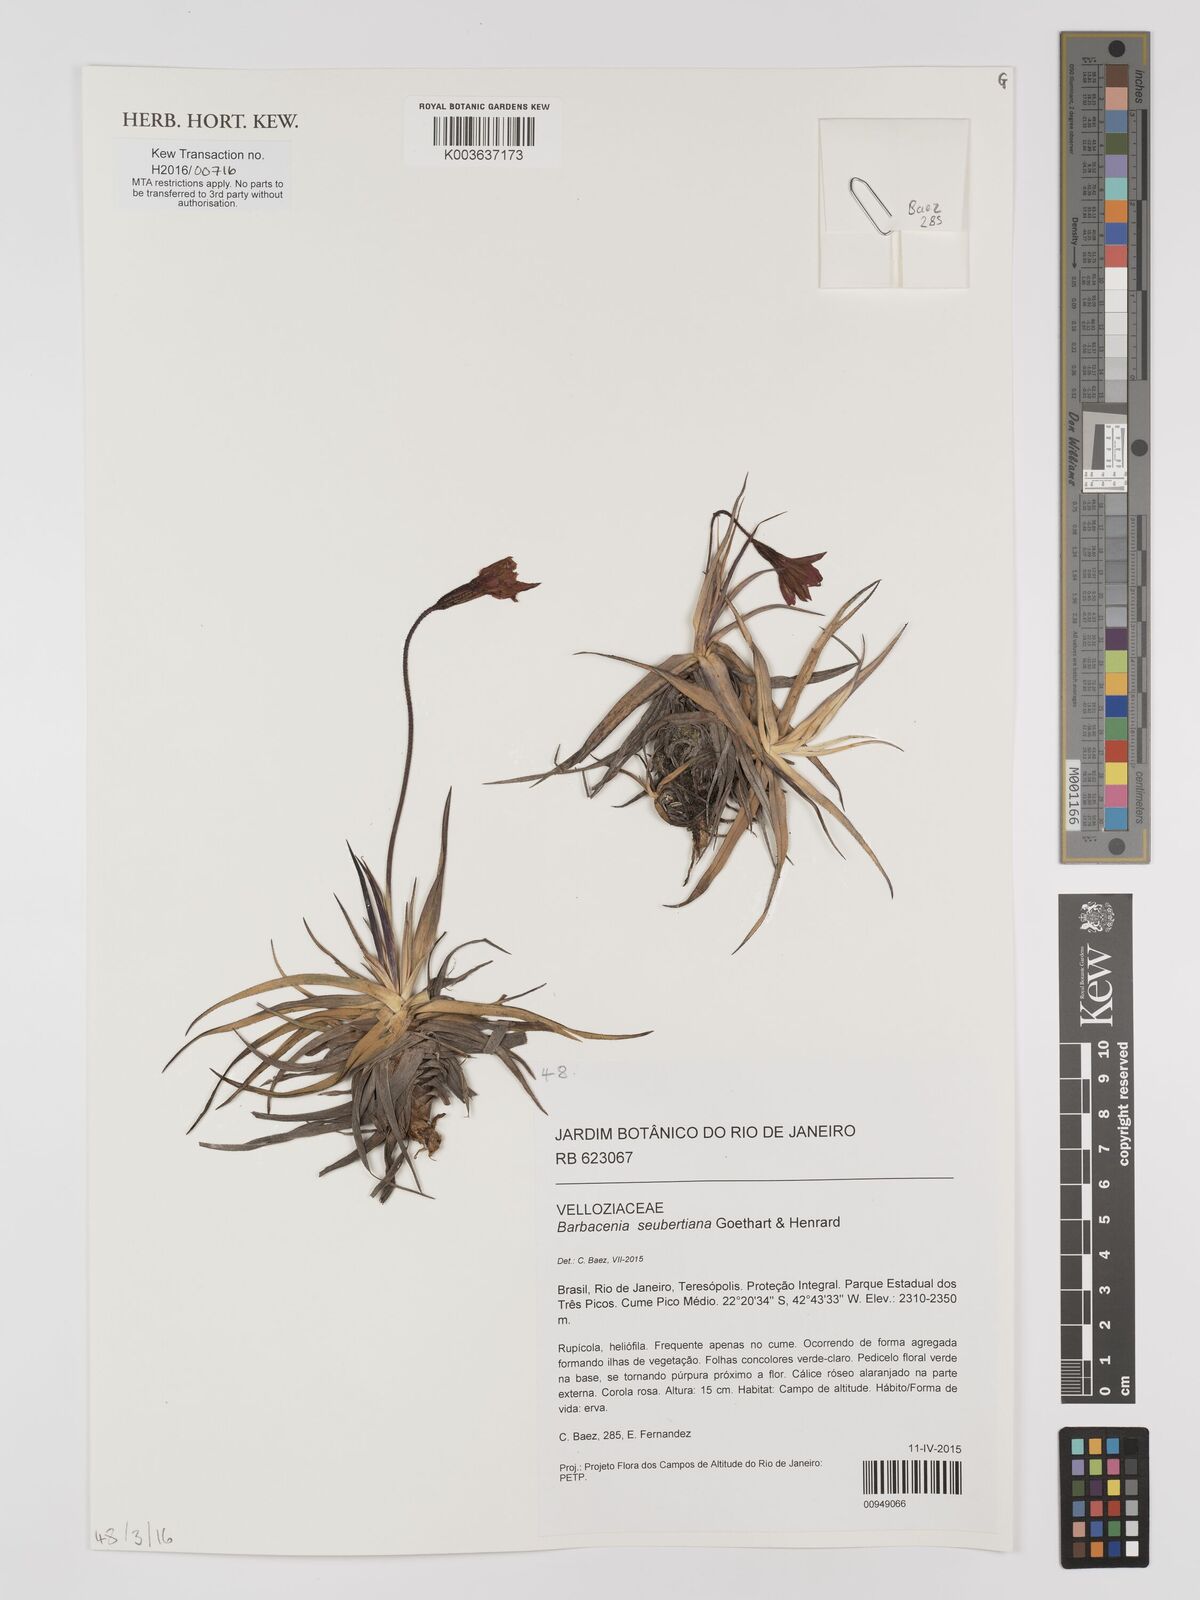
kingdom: Plantae
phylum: Tracheophyta
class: Liliopsida
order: Pandanales
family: Velloziaceae
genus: Barbacenia
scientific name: Barbacenia seubertiana
